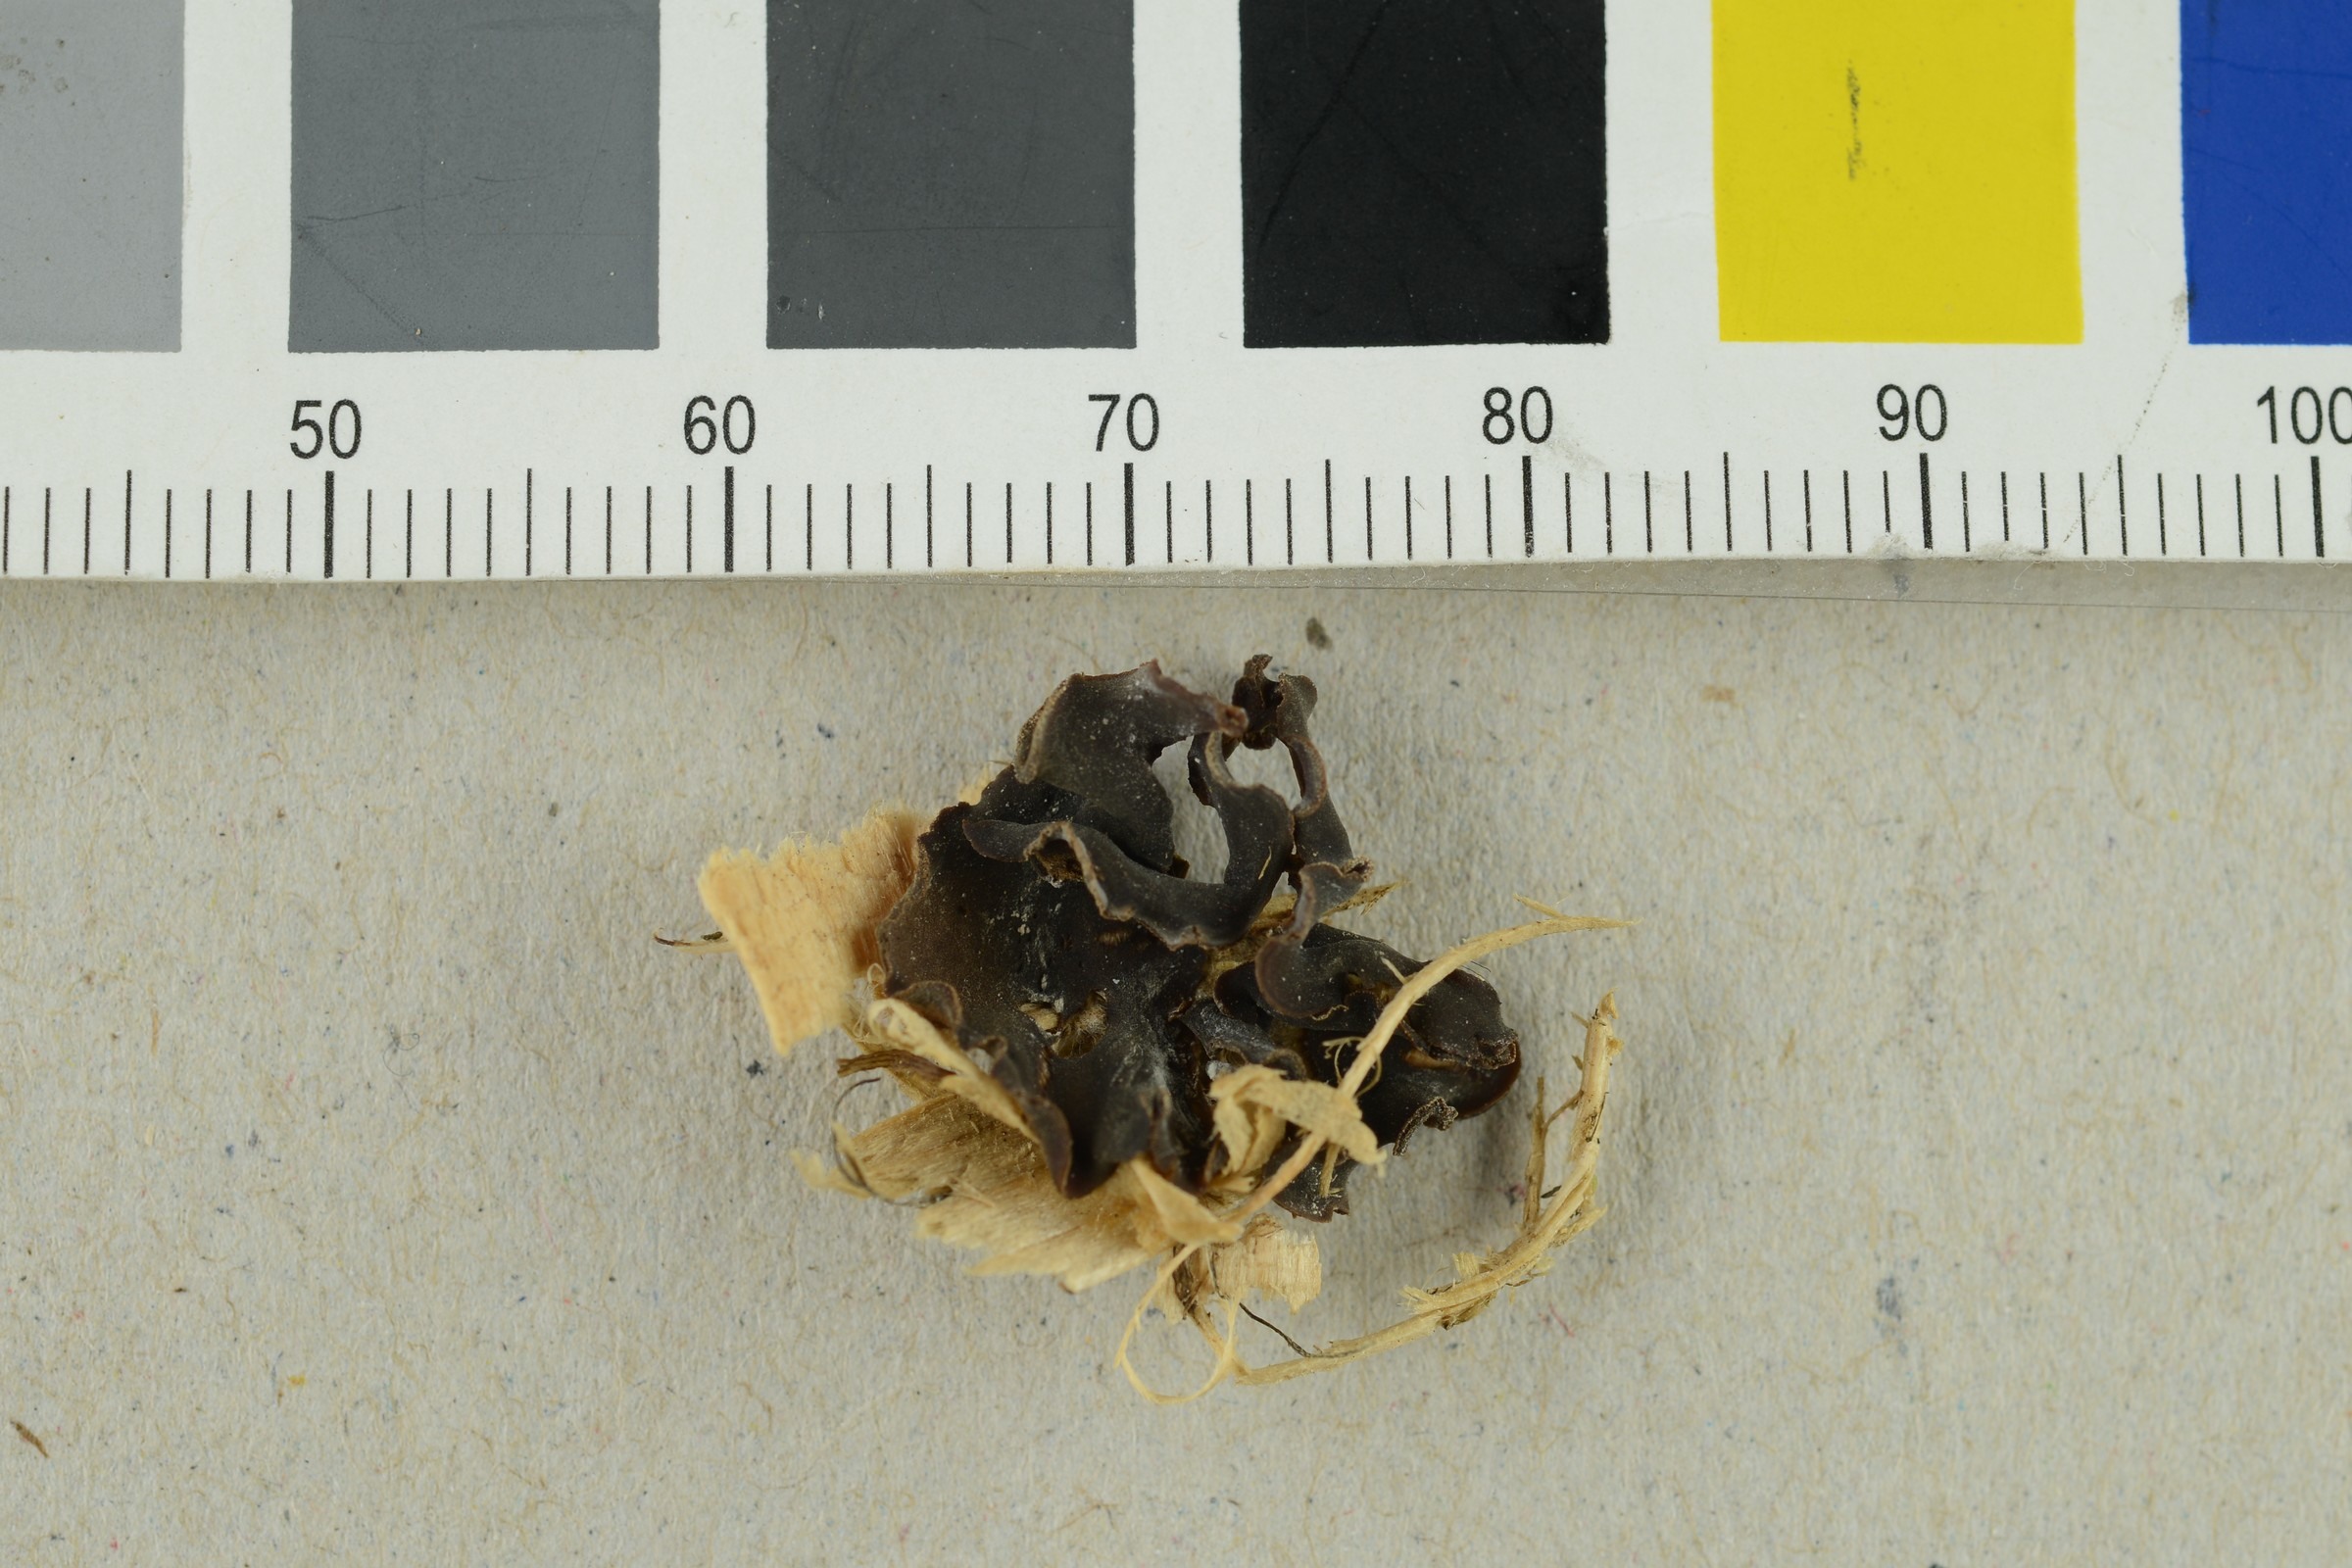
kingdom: Fungi
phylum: Ascomycota
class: Pezizomycetes
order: Pezizales
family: Pezizaceae
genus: Peziza
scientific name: Peziza fimeti
